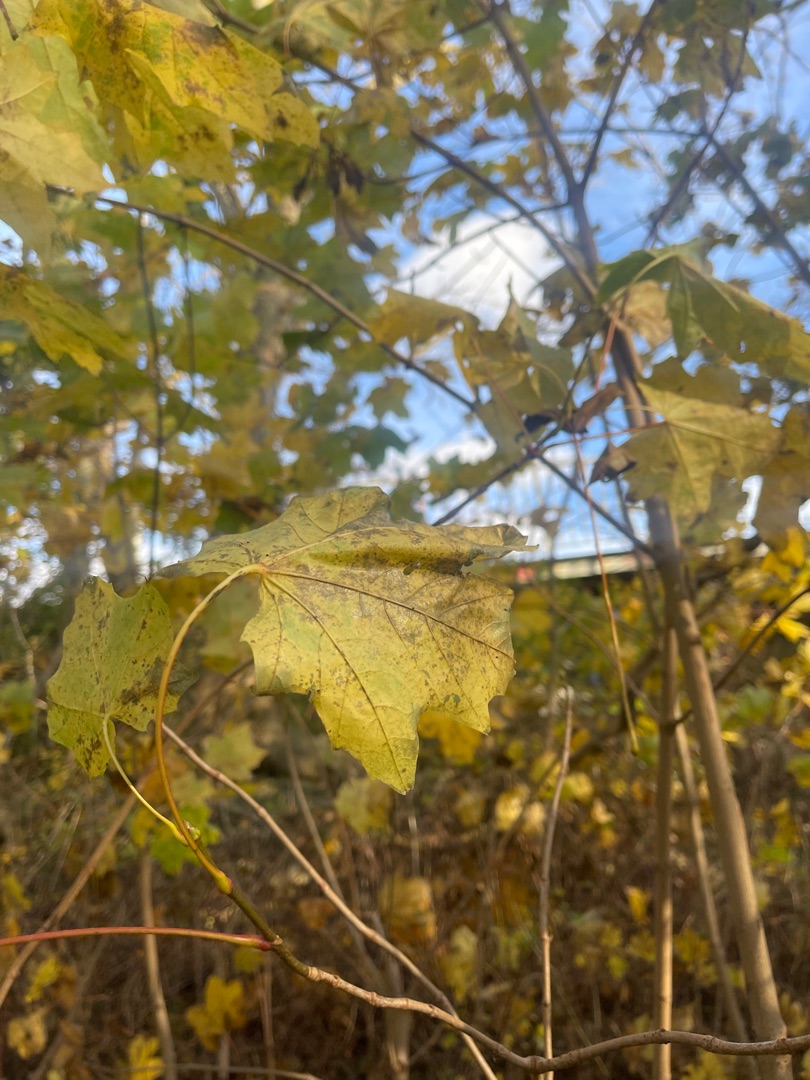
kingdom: Plantae
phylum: Tracheophyta
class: Magnoliopsida
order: Sapindales
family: Sapindaceae
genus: Acer
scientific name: Acer pseudoplatanus
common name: Ahorn
